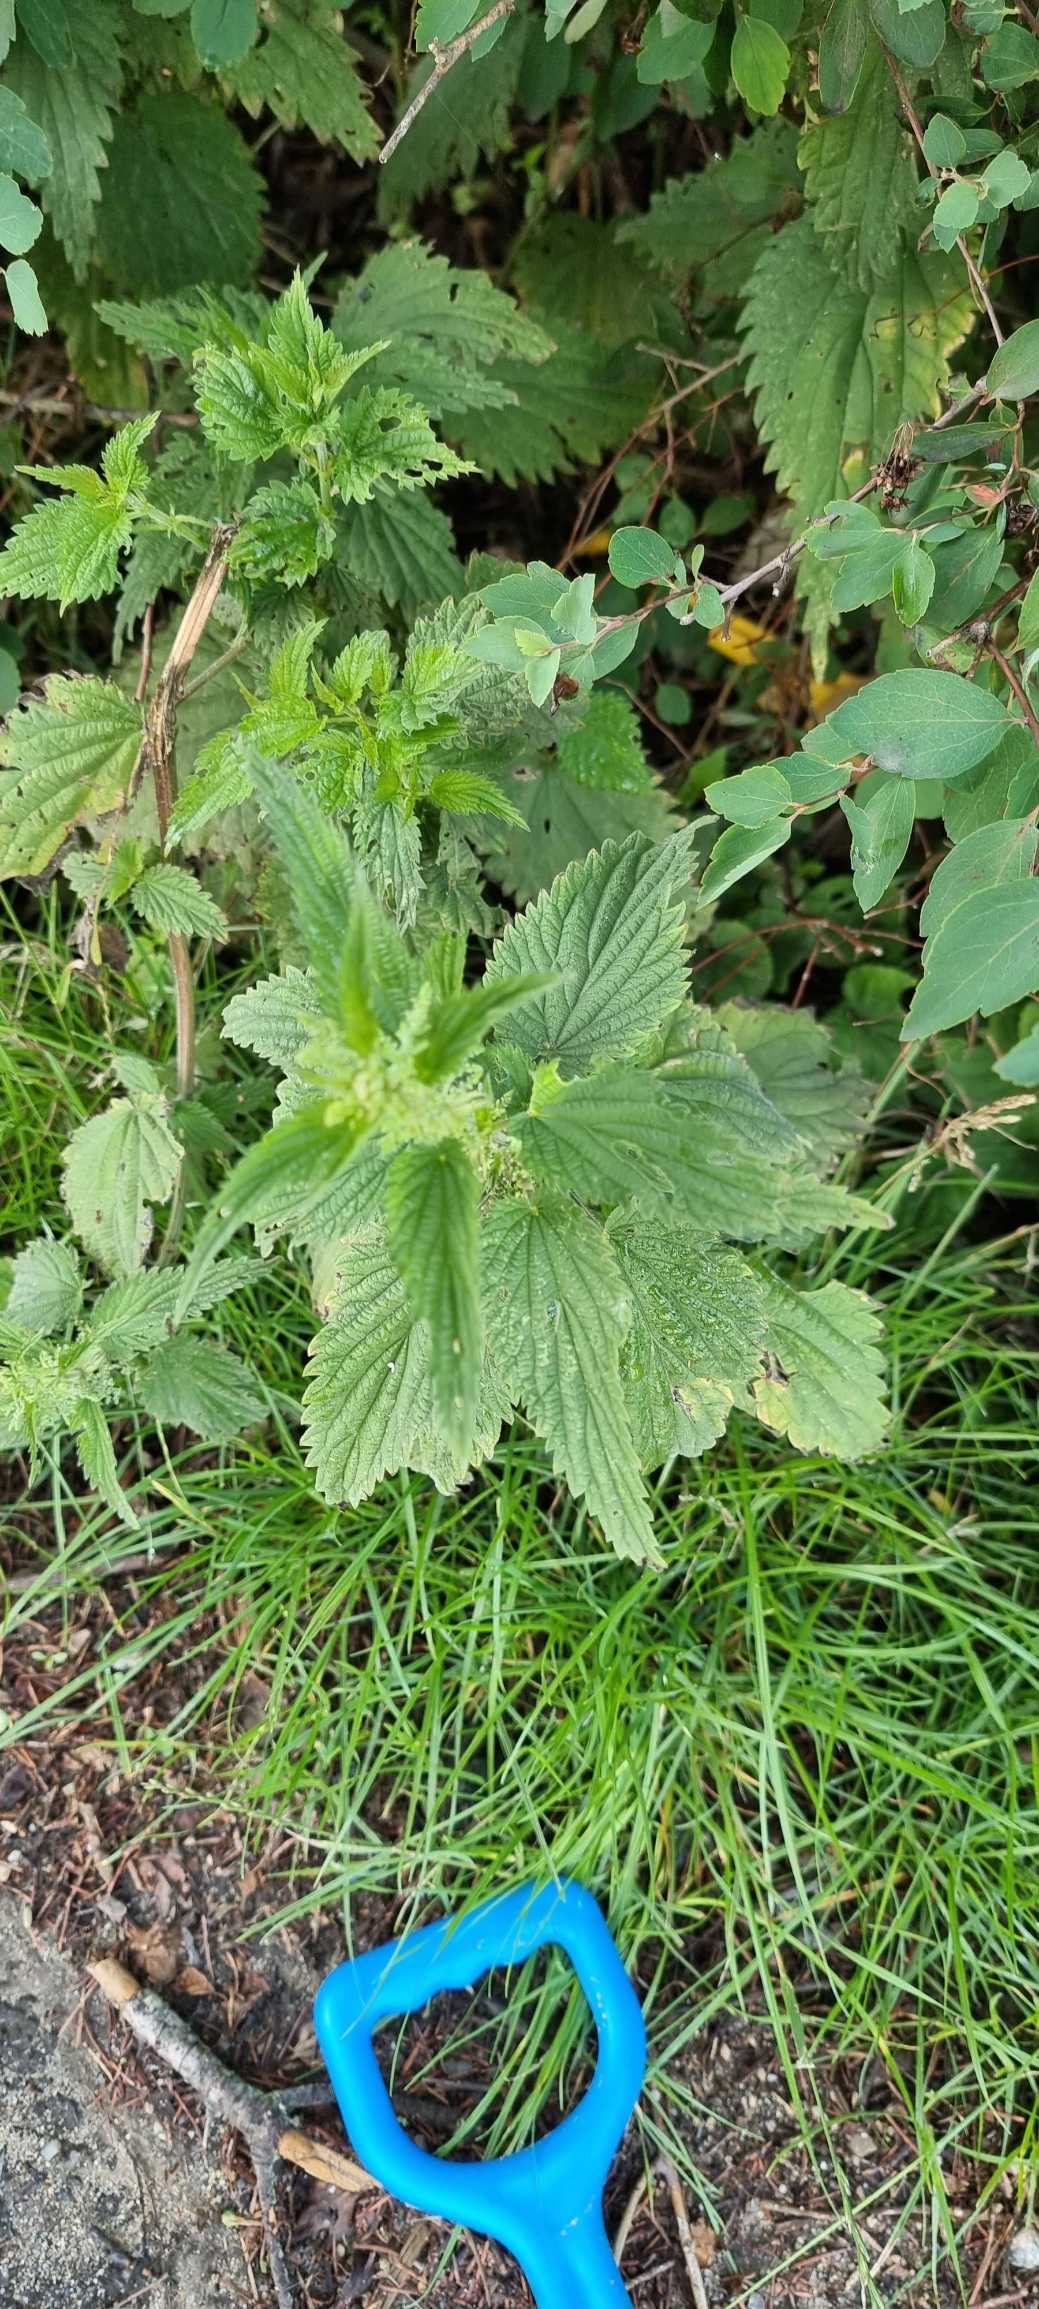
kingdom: Plantae
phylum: Tracheophyta
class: Magnoliopsida
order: Rosales
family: Urticaceae
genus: Urtica
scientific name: Urtica dioica
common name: Stor nælde
